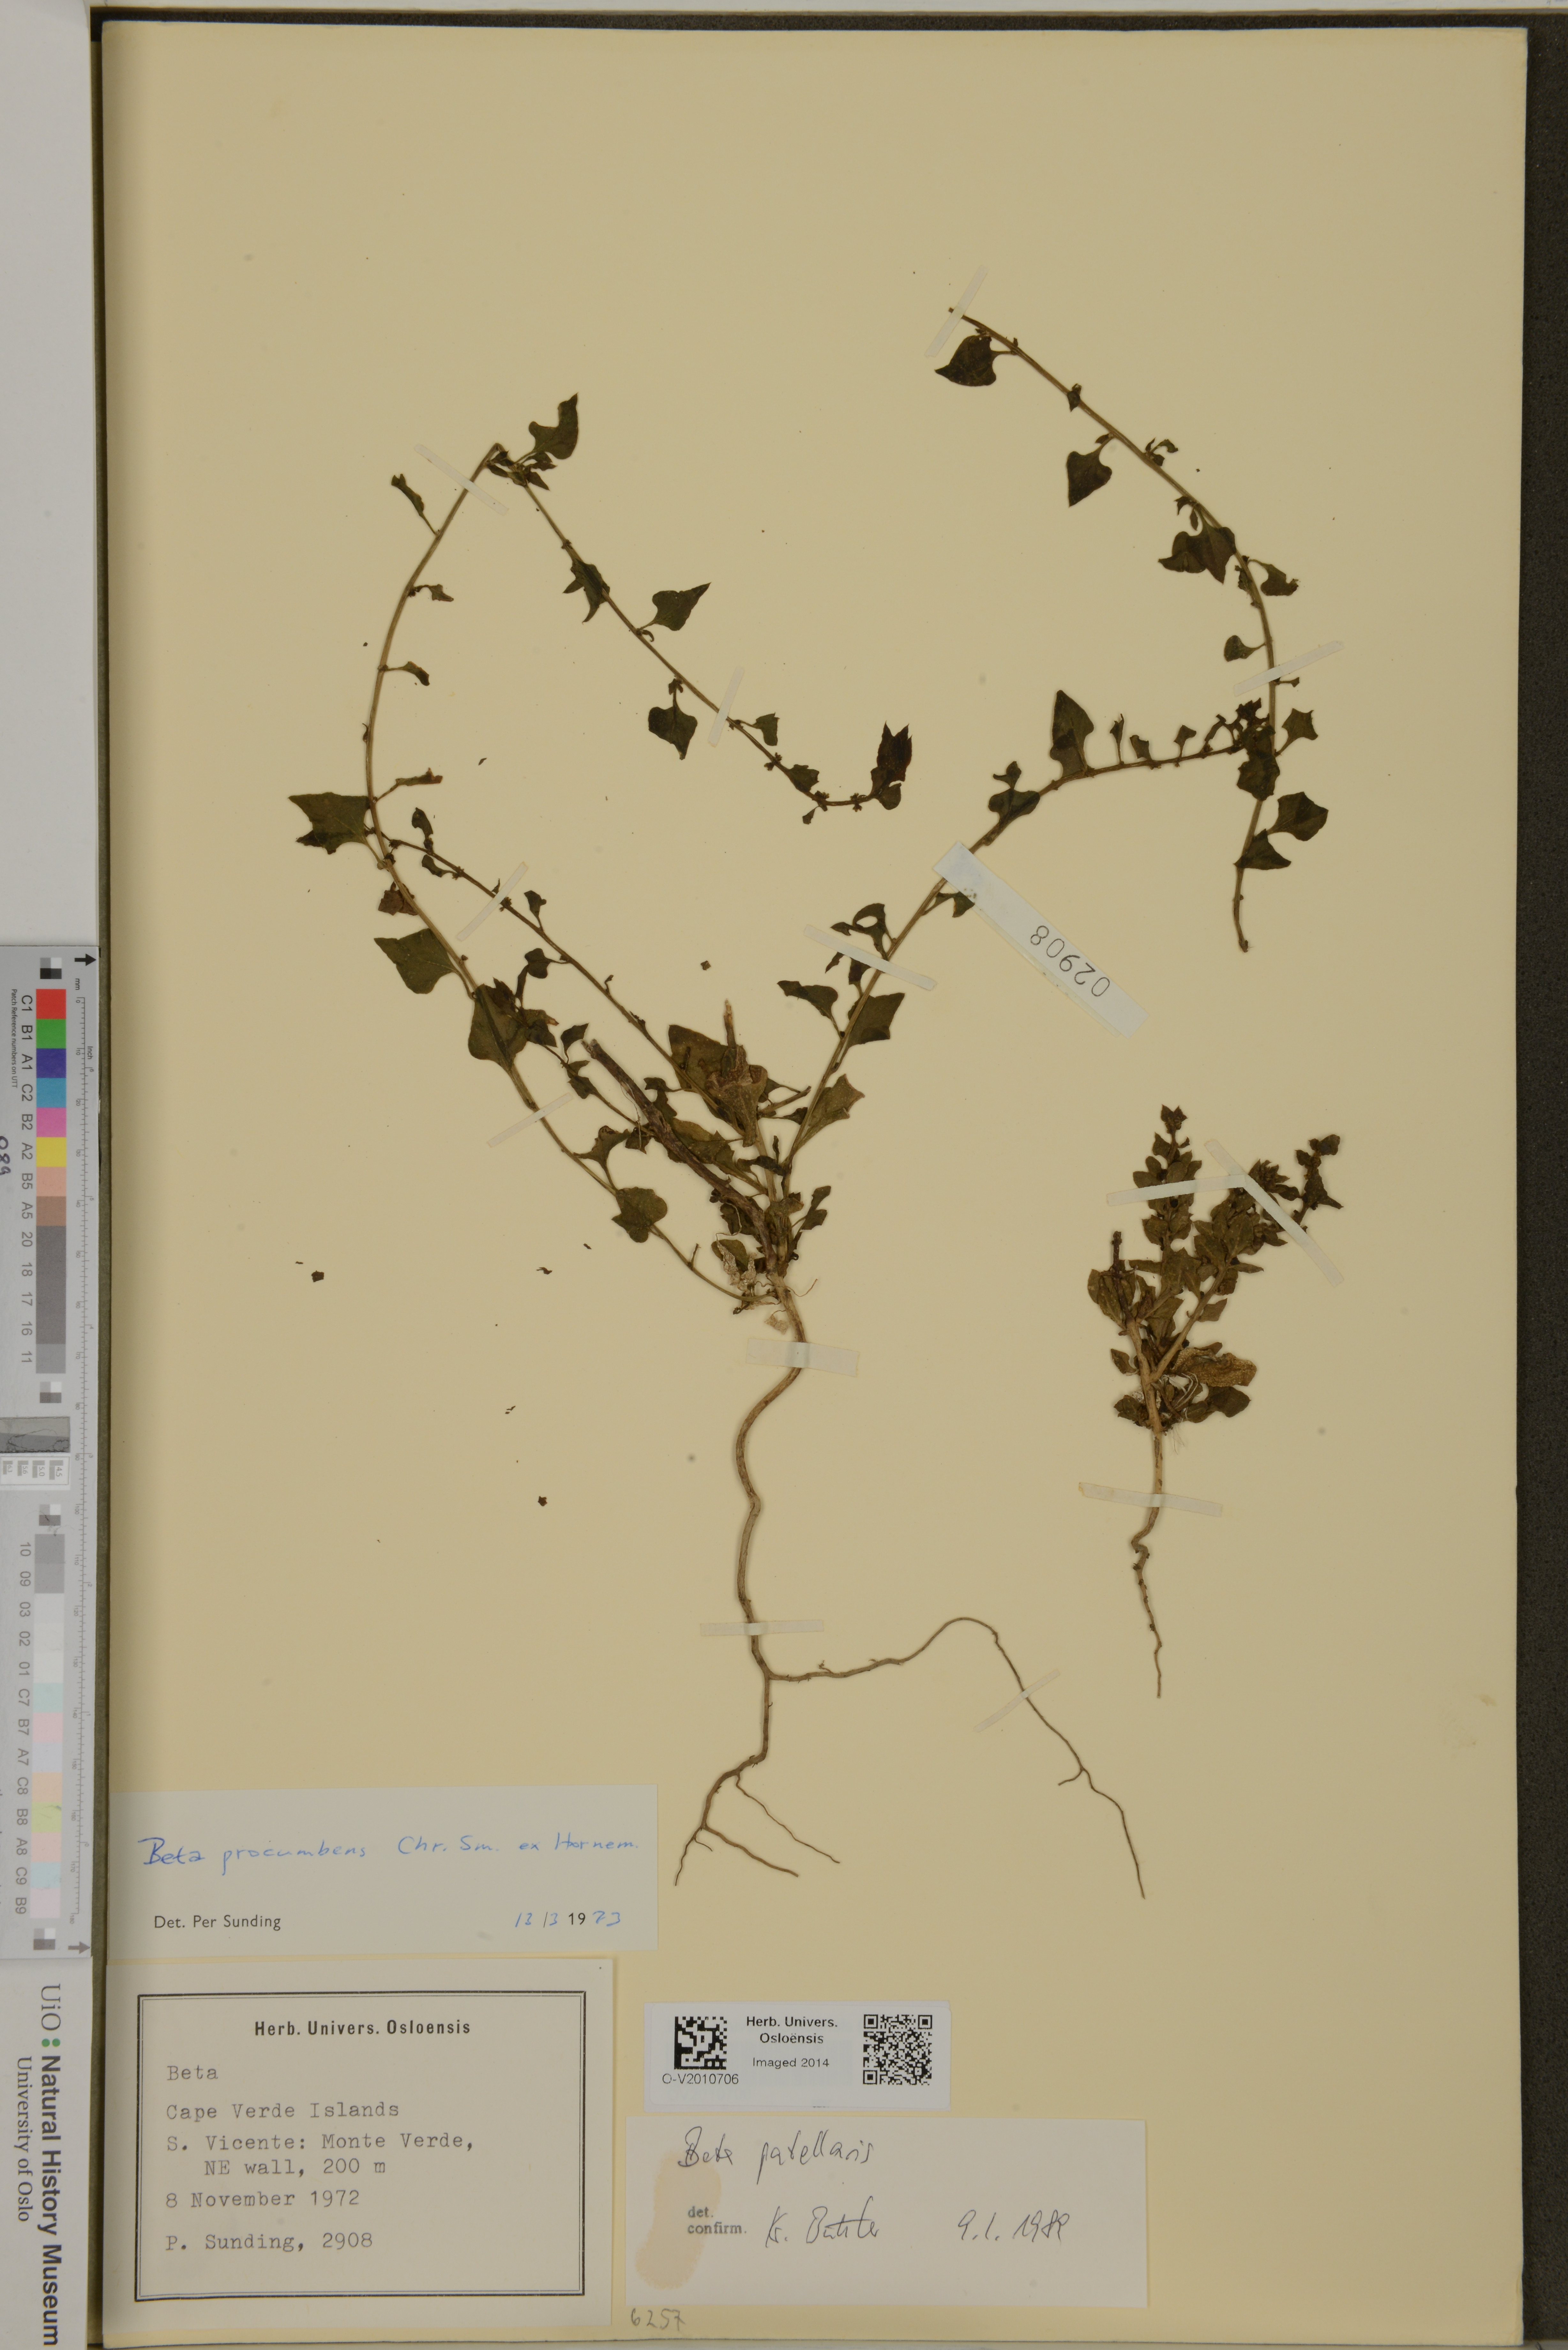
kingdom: Plantae
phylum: Tracheophyta
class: Magnoliopsida
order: Caryophyllales
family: Amaranthaceae
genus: Patellifolia
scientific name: Patellifolia procumbens
